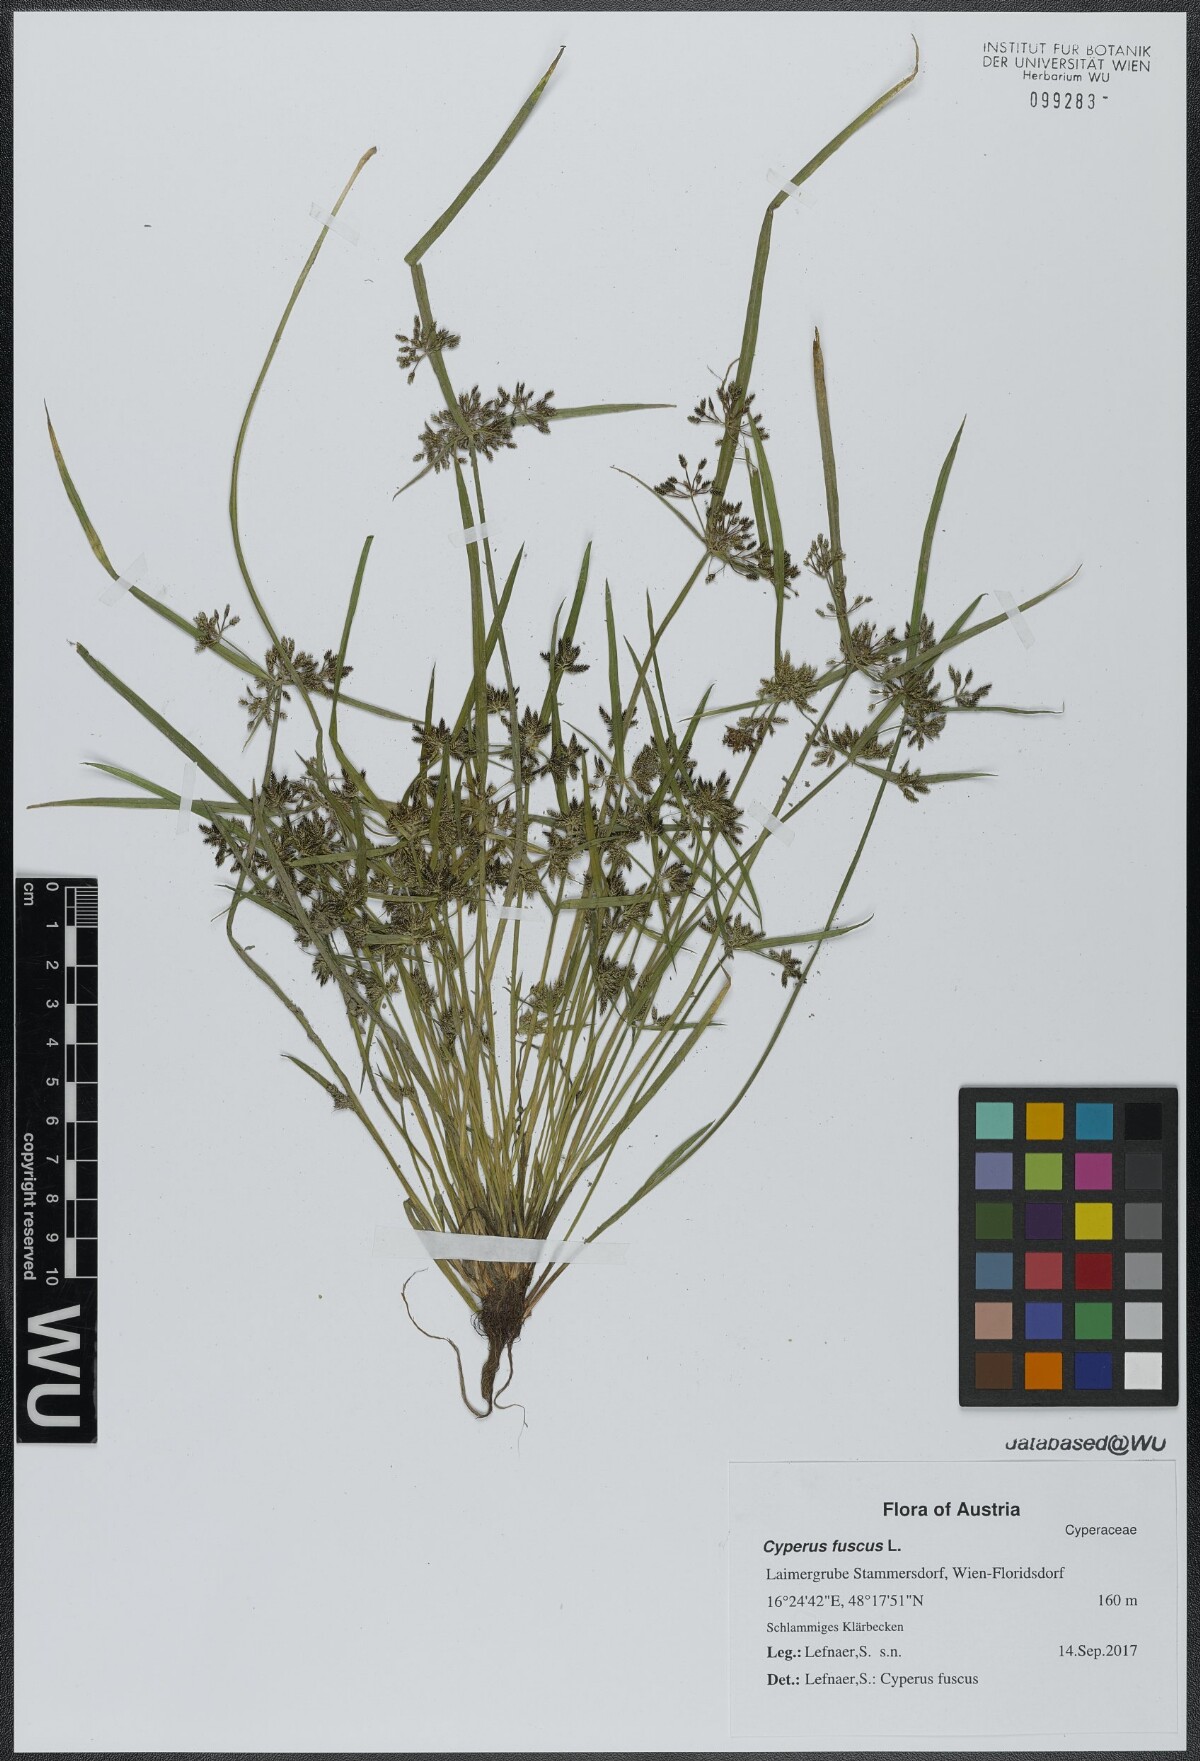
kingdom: Plantae
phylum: Tracheophyta
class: Liliopsida
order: Poales
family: Cyperaceae
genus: Cyperus
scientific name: Cyperus fuscus
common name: Brown galingale
